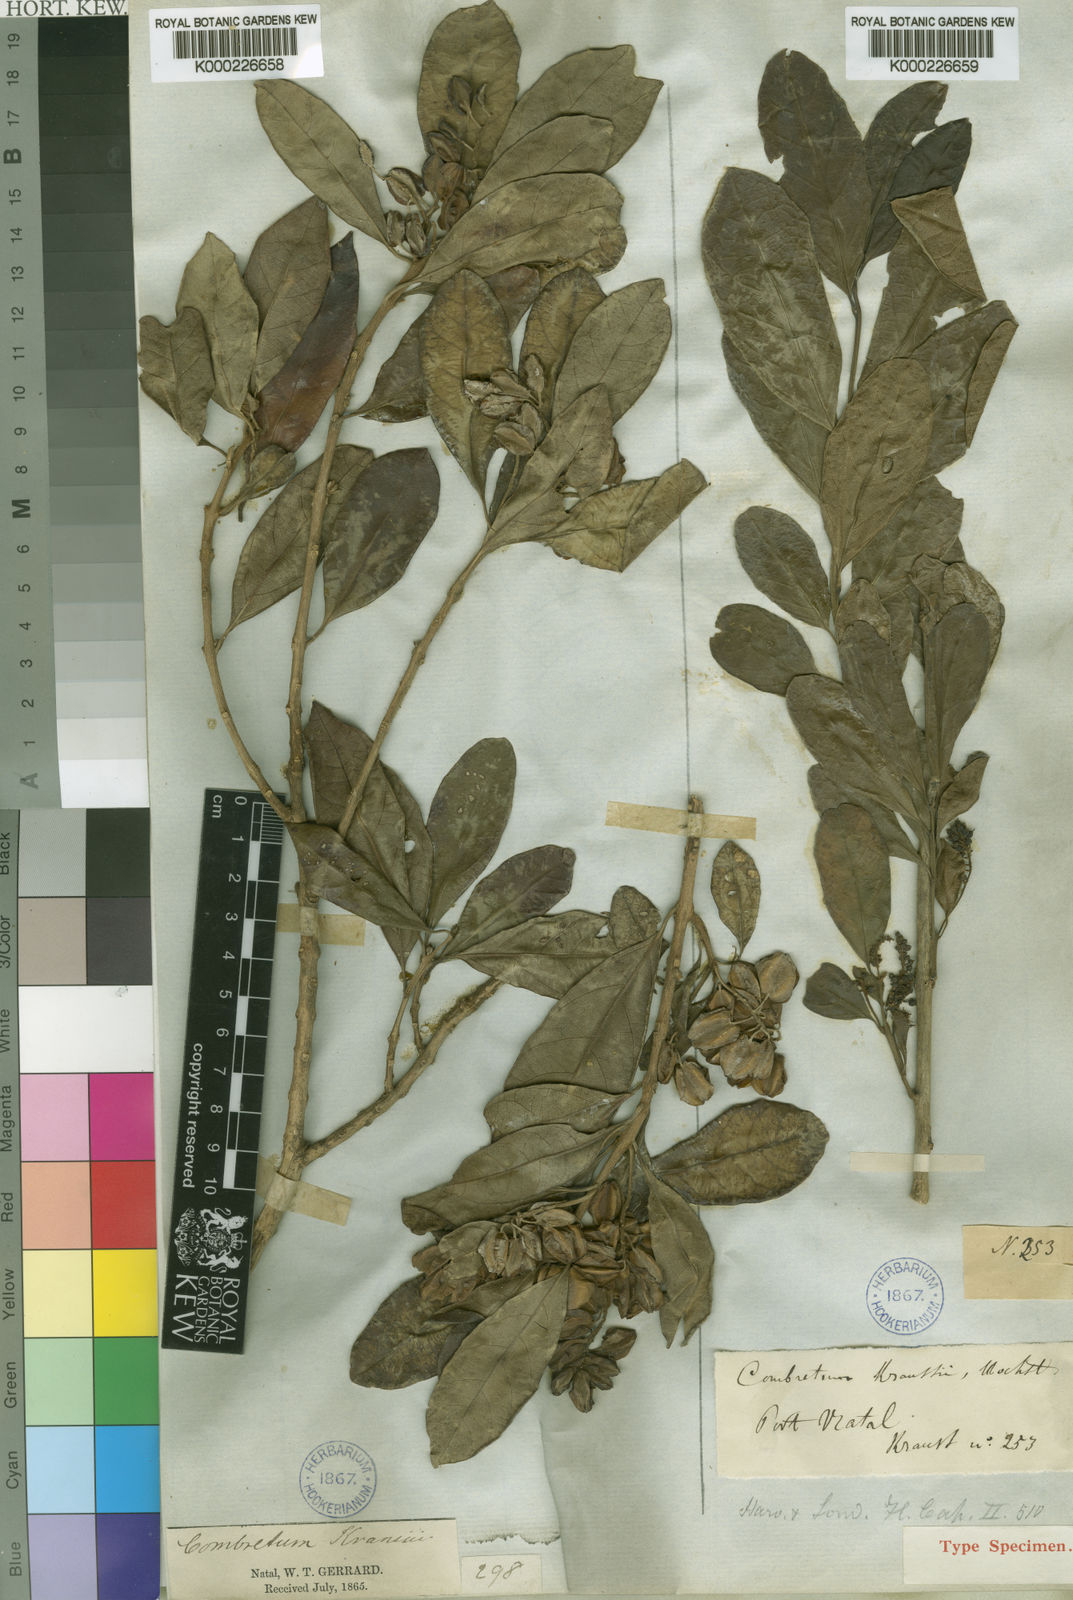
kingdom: Plantae
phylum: Tracheophyta
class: Magnoliopsida
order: Myrtales
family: Combretaceae
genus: Combretum
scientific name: Combretum kraussii
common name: Forest bushwillow
